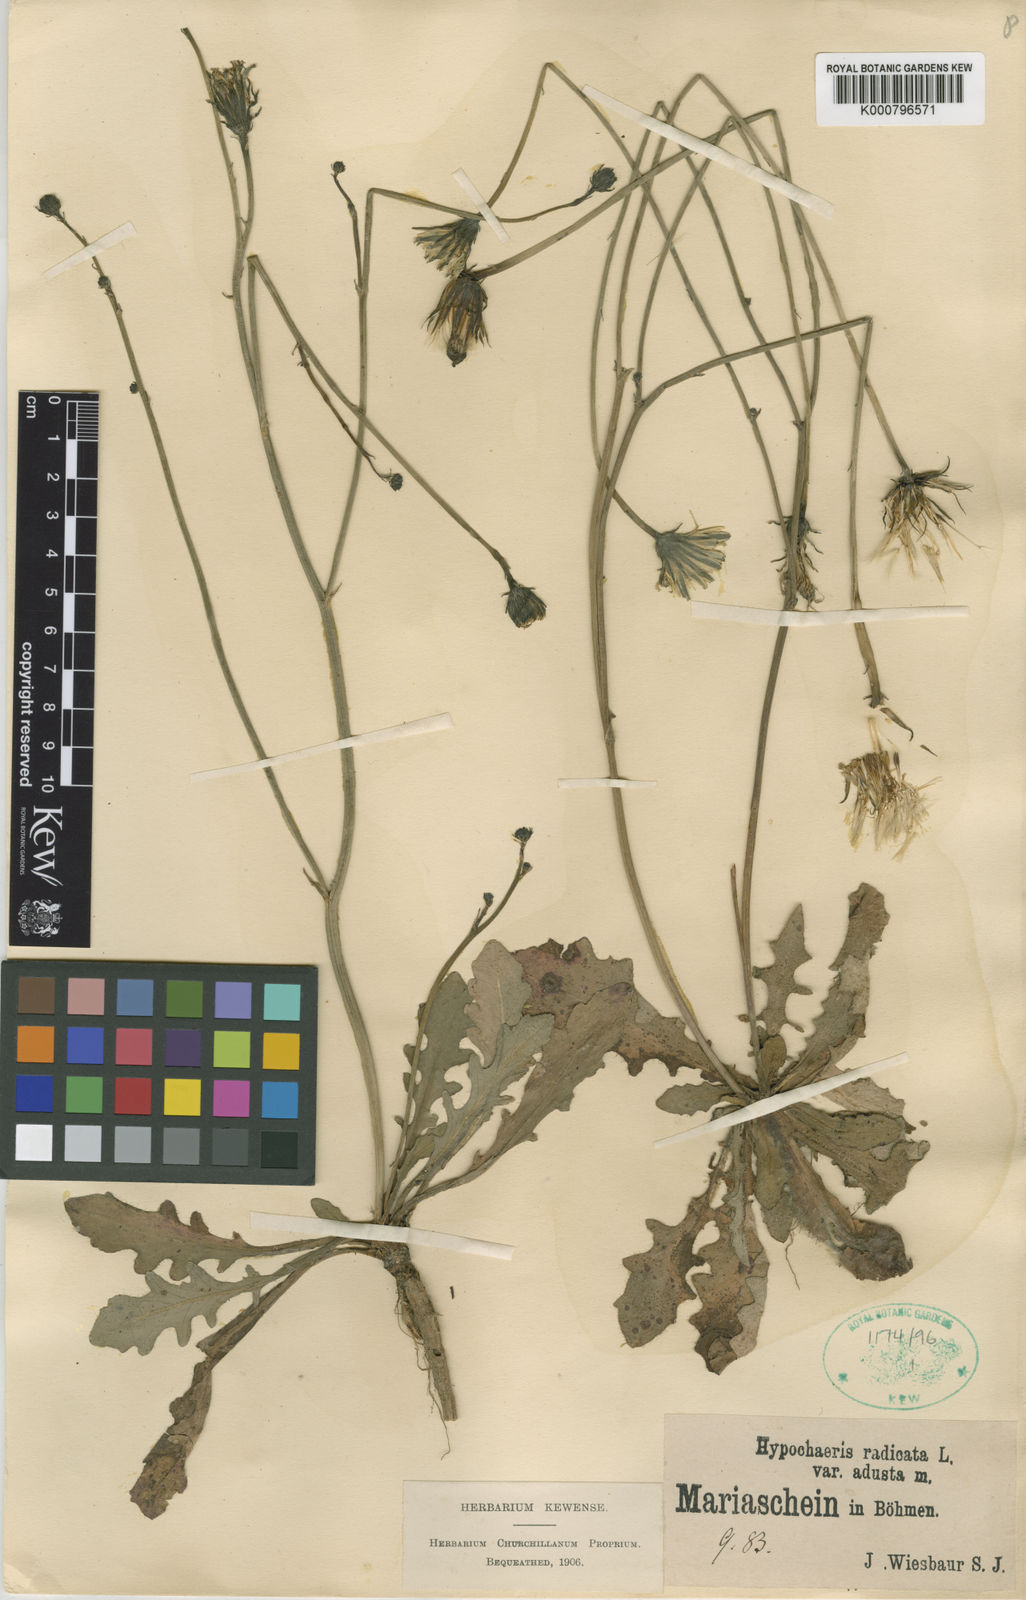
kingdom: Plantae
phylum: Tracheophyta
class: Magnoliopsida
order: Asterales
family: Asteraceae
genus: Hypochaeris
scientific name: Hypochaeris radicata
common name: Flatweed
